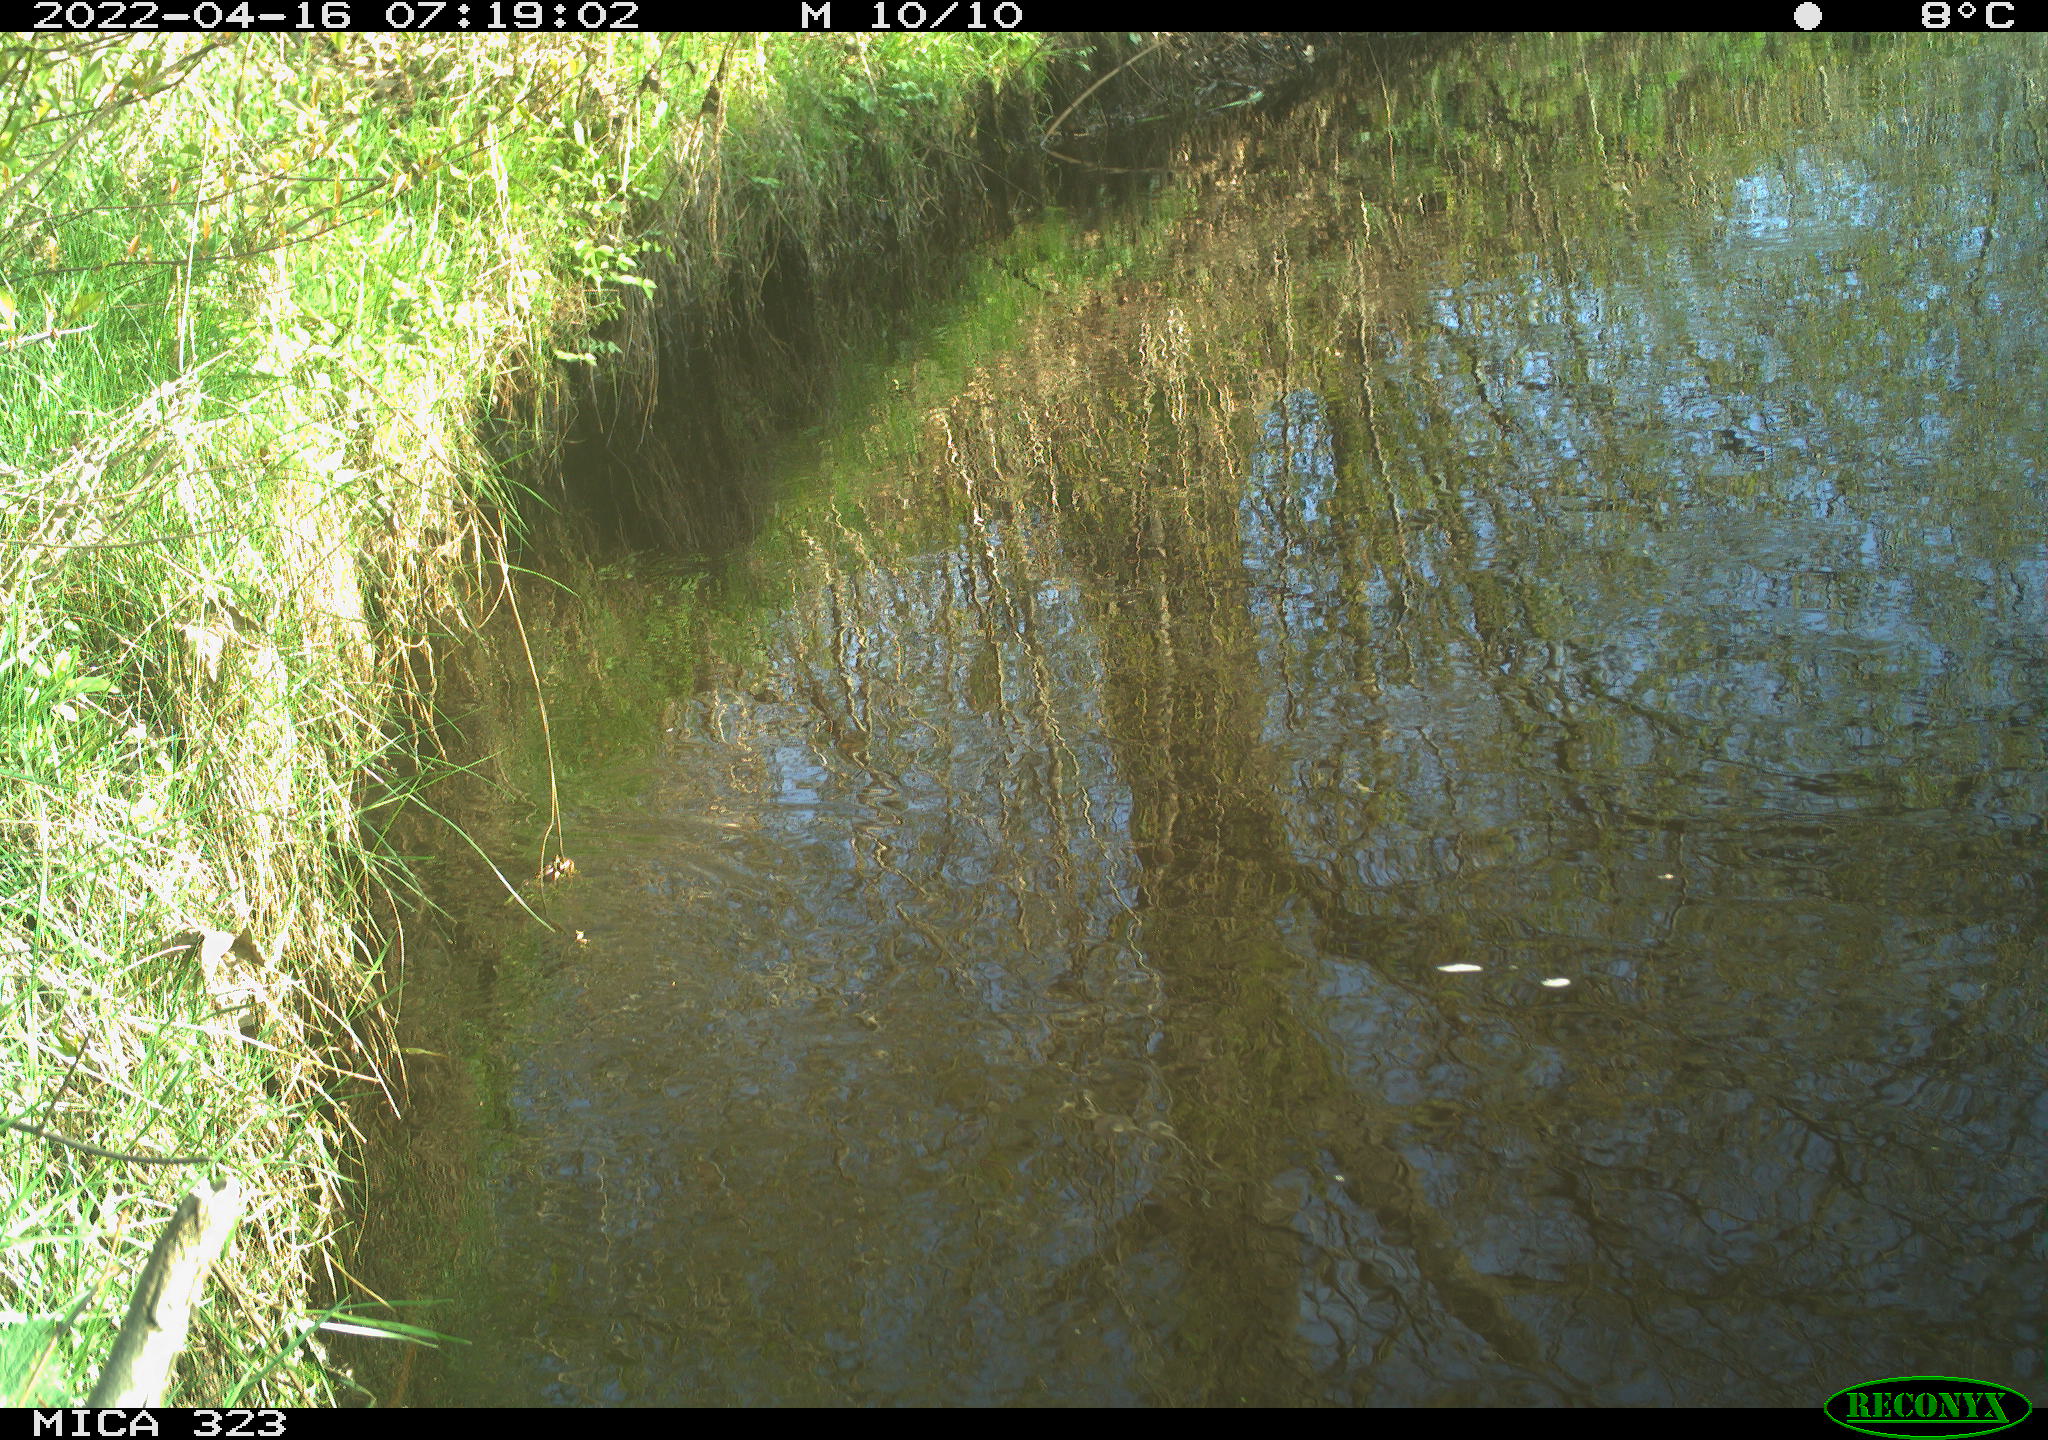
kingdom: Animalia
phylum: Chordata
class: Aves
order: Gruiformes
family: Rallidae
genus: Gallinula
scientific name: Gallinula chloropus
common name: Common moorhen
